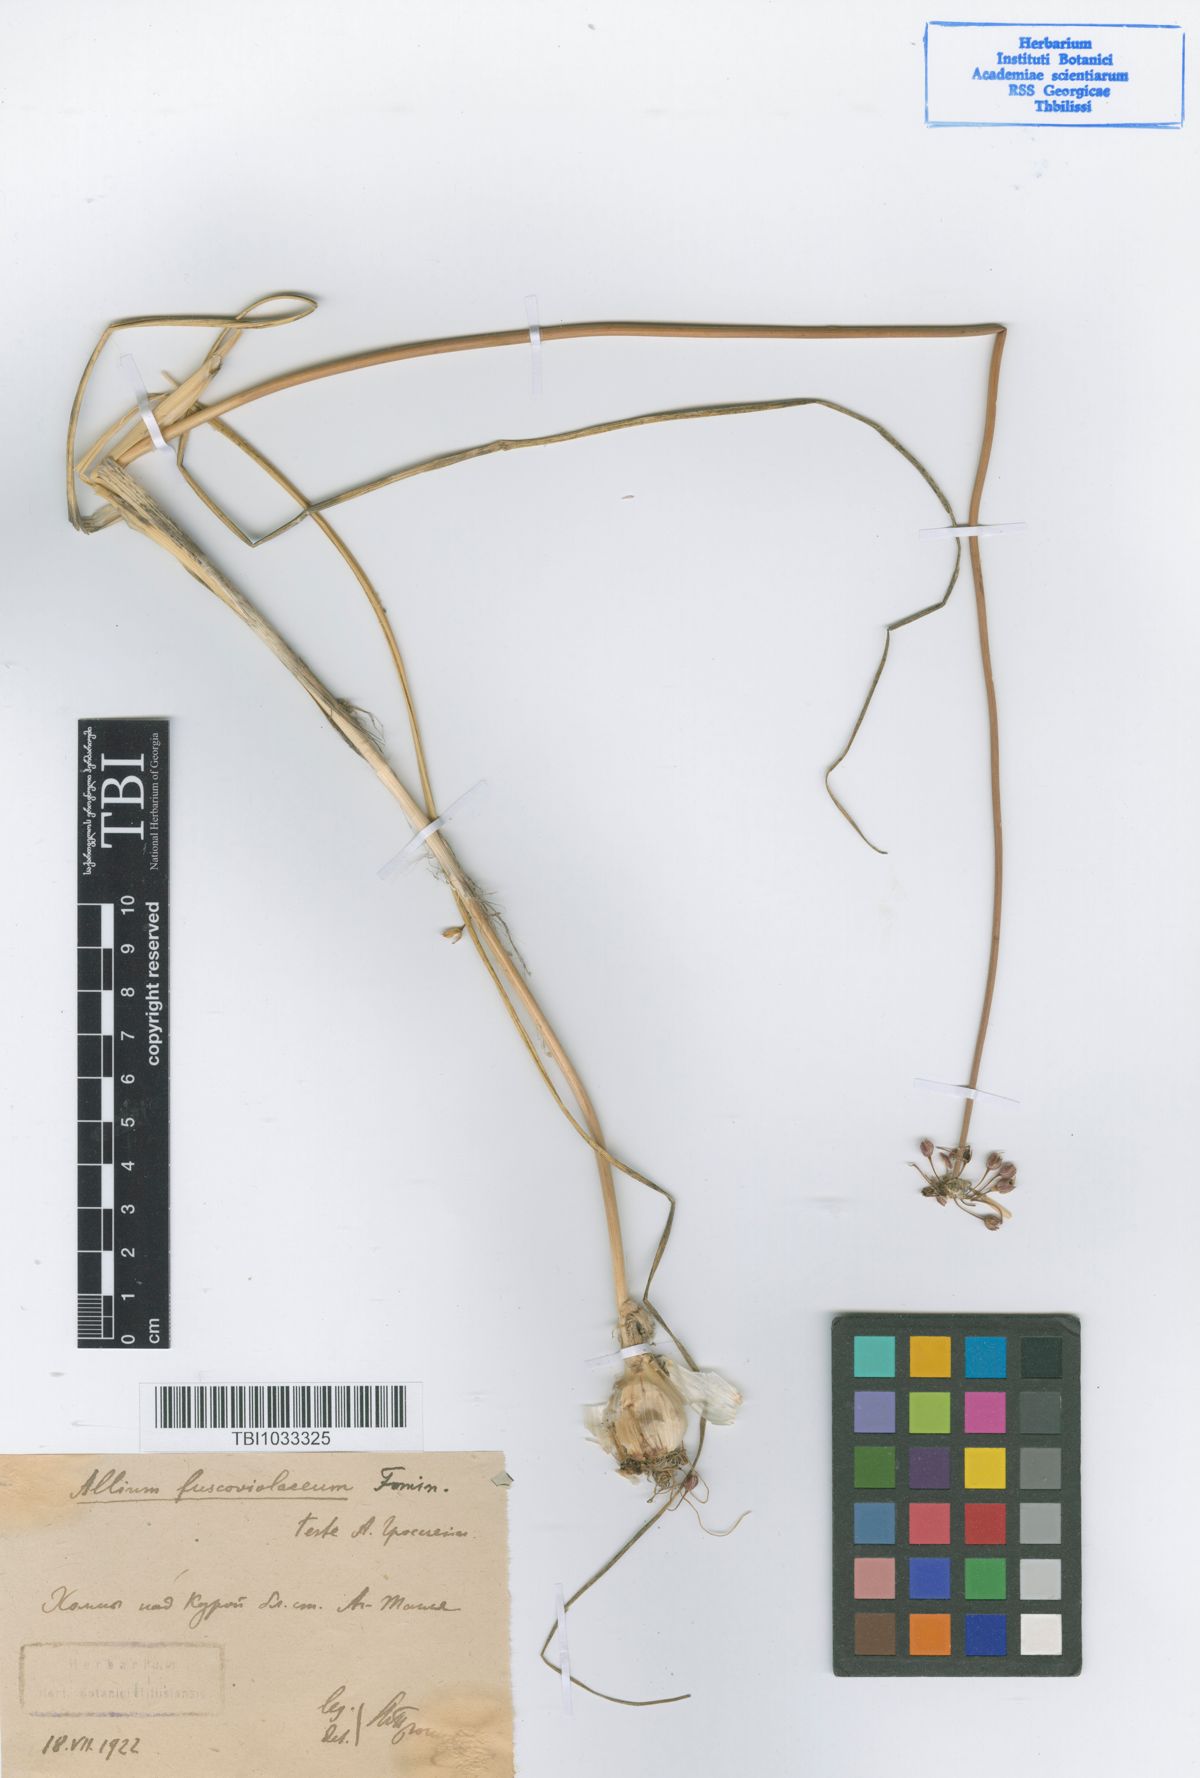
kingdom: Plantae
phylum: Tracheophyta
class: Liliopsida
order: Asparagales
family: Amaryllidaceae
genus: Allium
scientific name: Allium fuscoviolaceum
